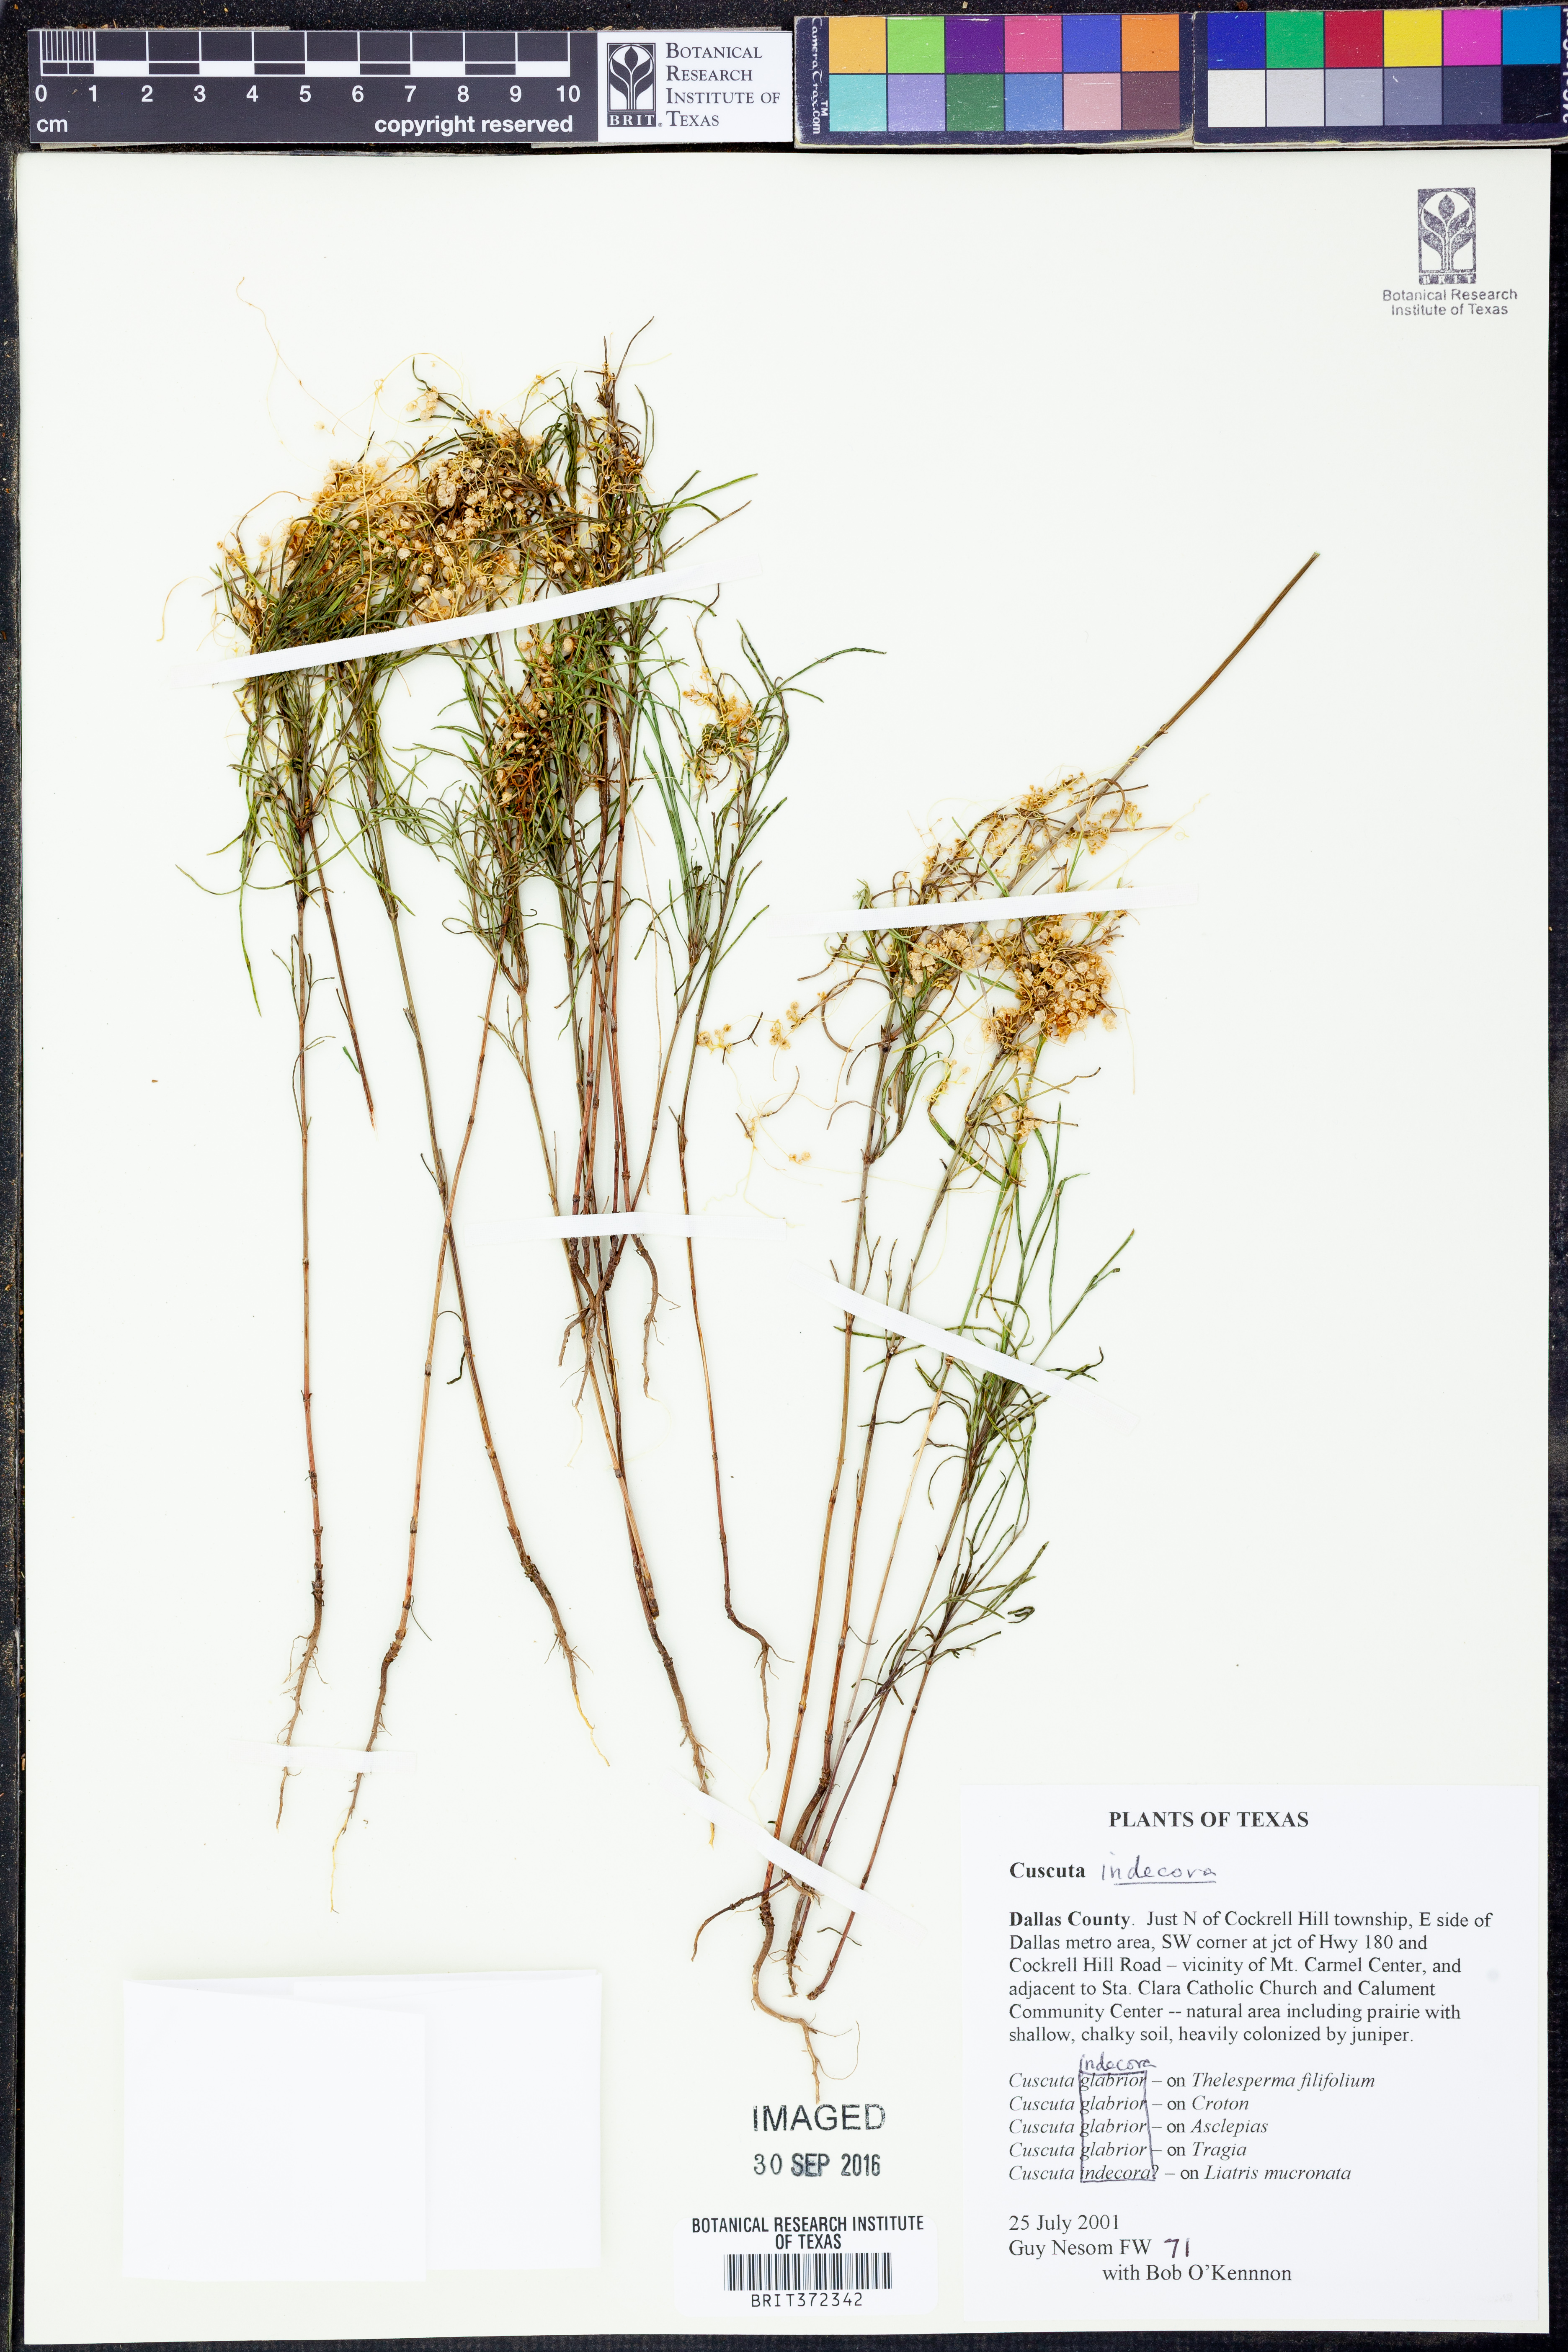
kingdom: Plantae
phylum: Tracheophyta
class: Magnoliopsida
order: Solanales
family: Convolvulaceae
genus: Cuscuta
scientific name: Cuscuta indecora
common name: Large-seed dodder
